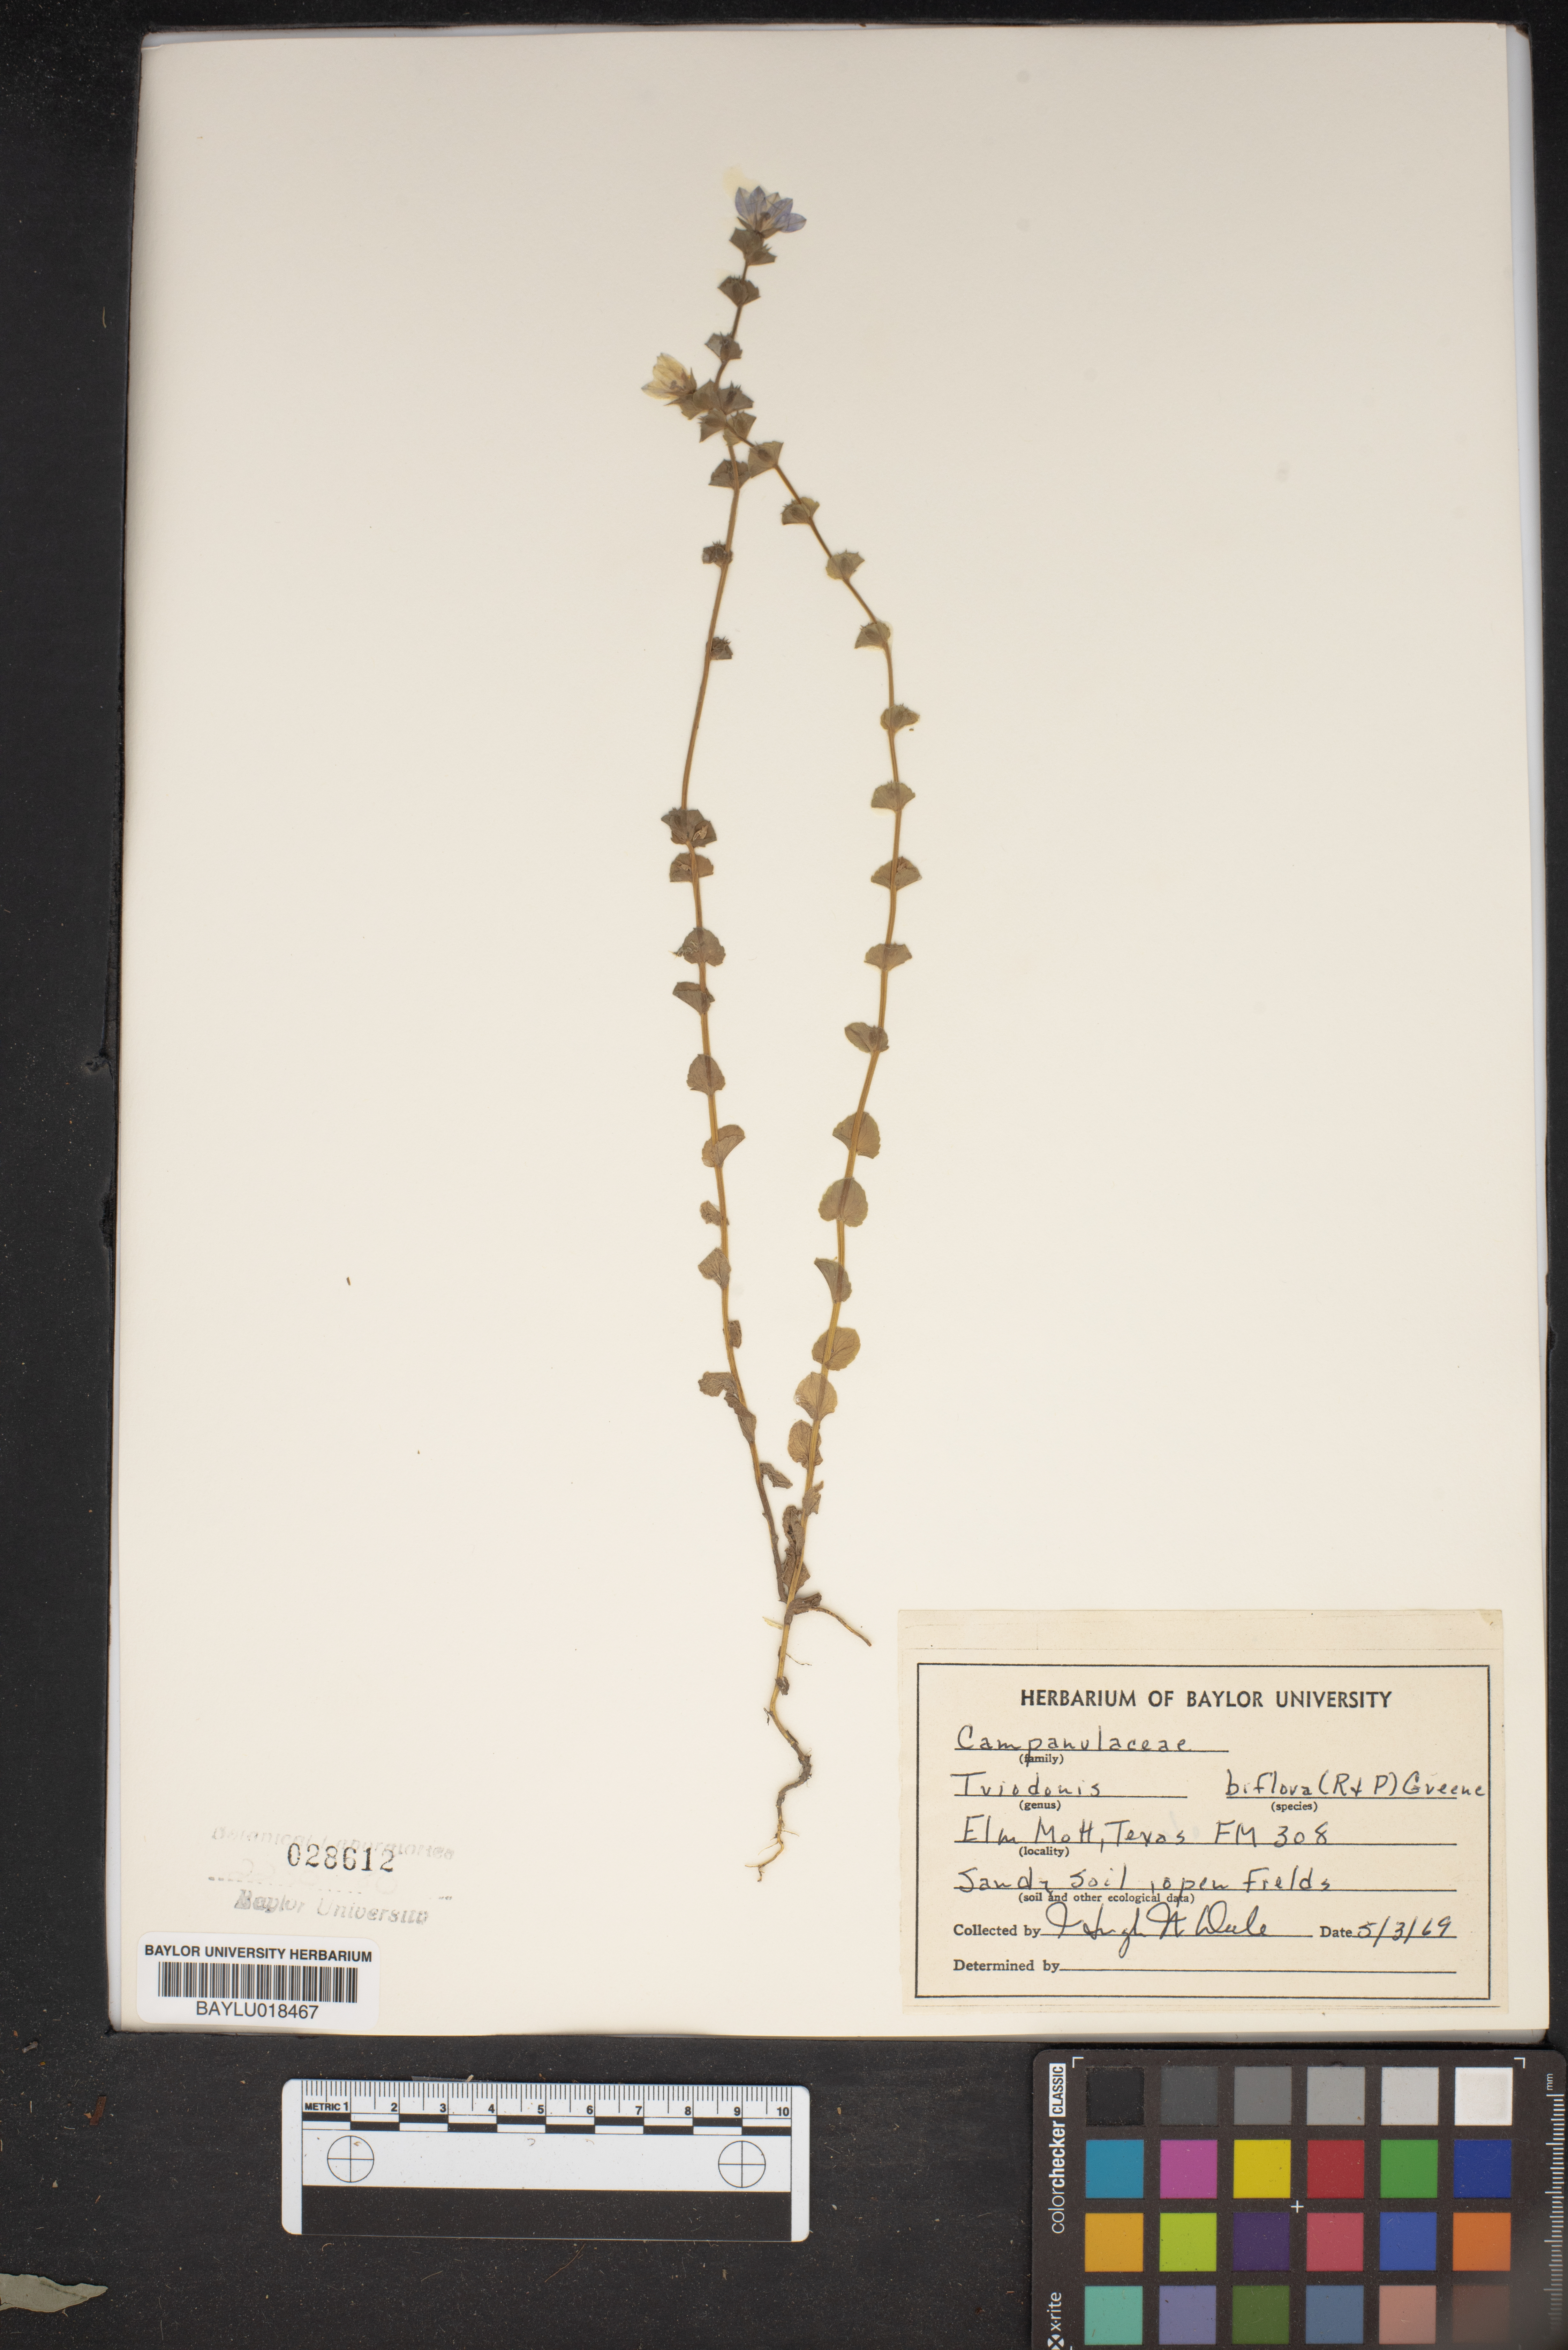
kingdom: Plantae
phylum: Tracheophyta
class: Magnoliopsida
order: Asterales
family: Campanulaceae
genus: Triodanis
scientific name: Triodanis perfoliata
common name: Clasping venus' looking-glass
